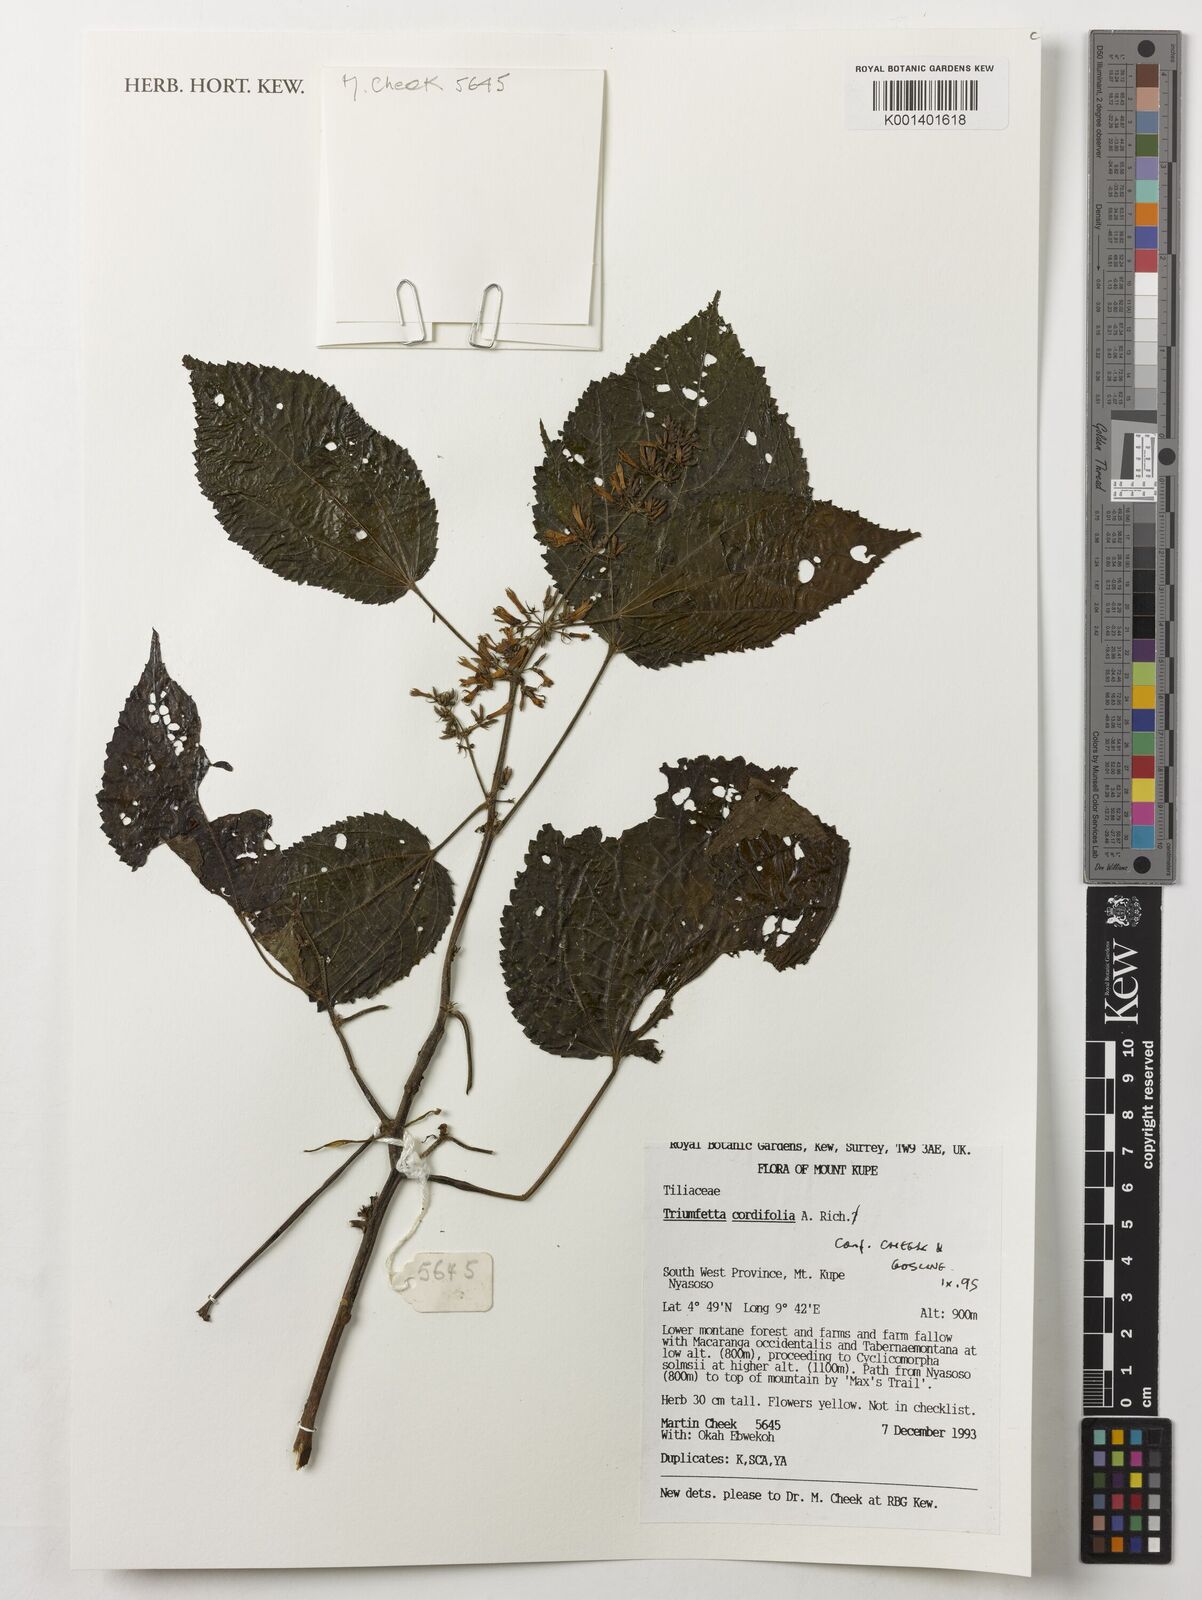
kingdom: Plantae
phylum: Tracheophyta
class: Magnoliopsida
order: Malvales
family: Malvaceae
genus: Triumfetta
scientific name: Triumfetta cordifolia
